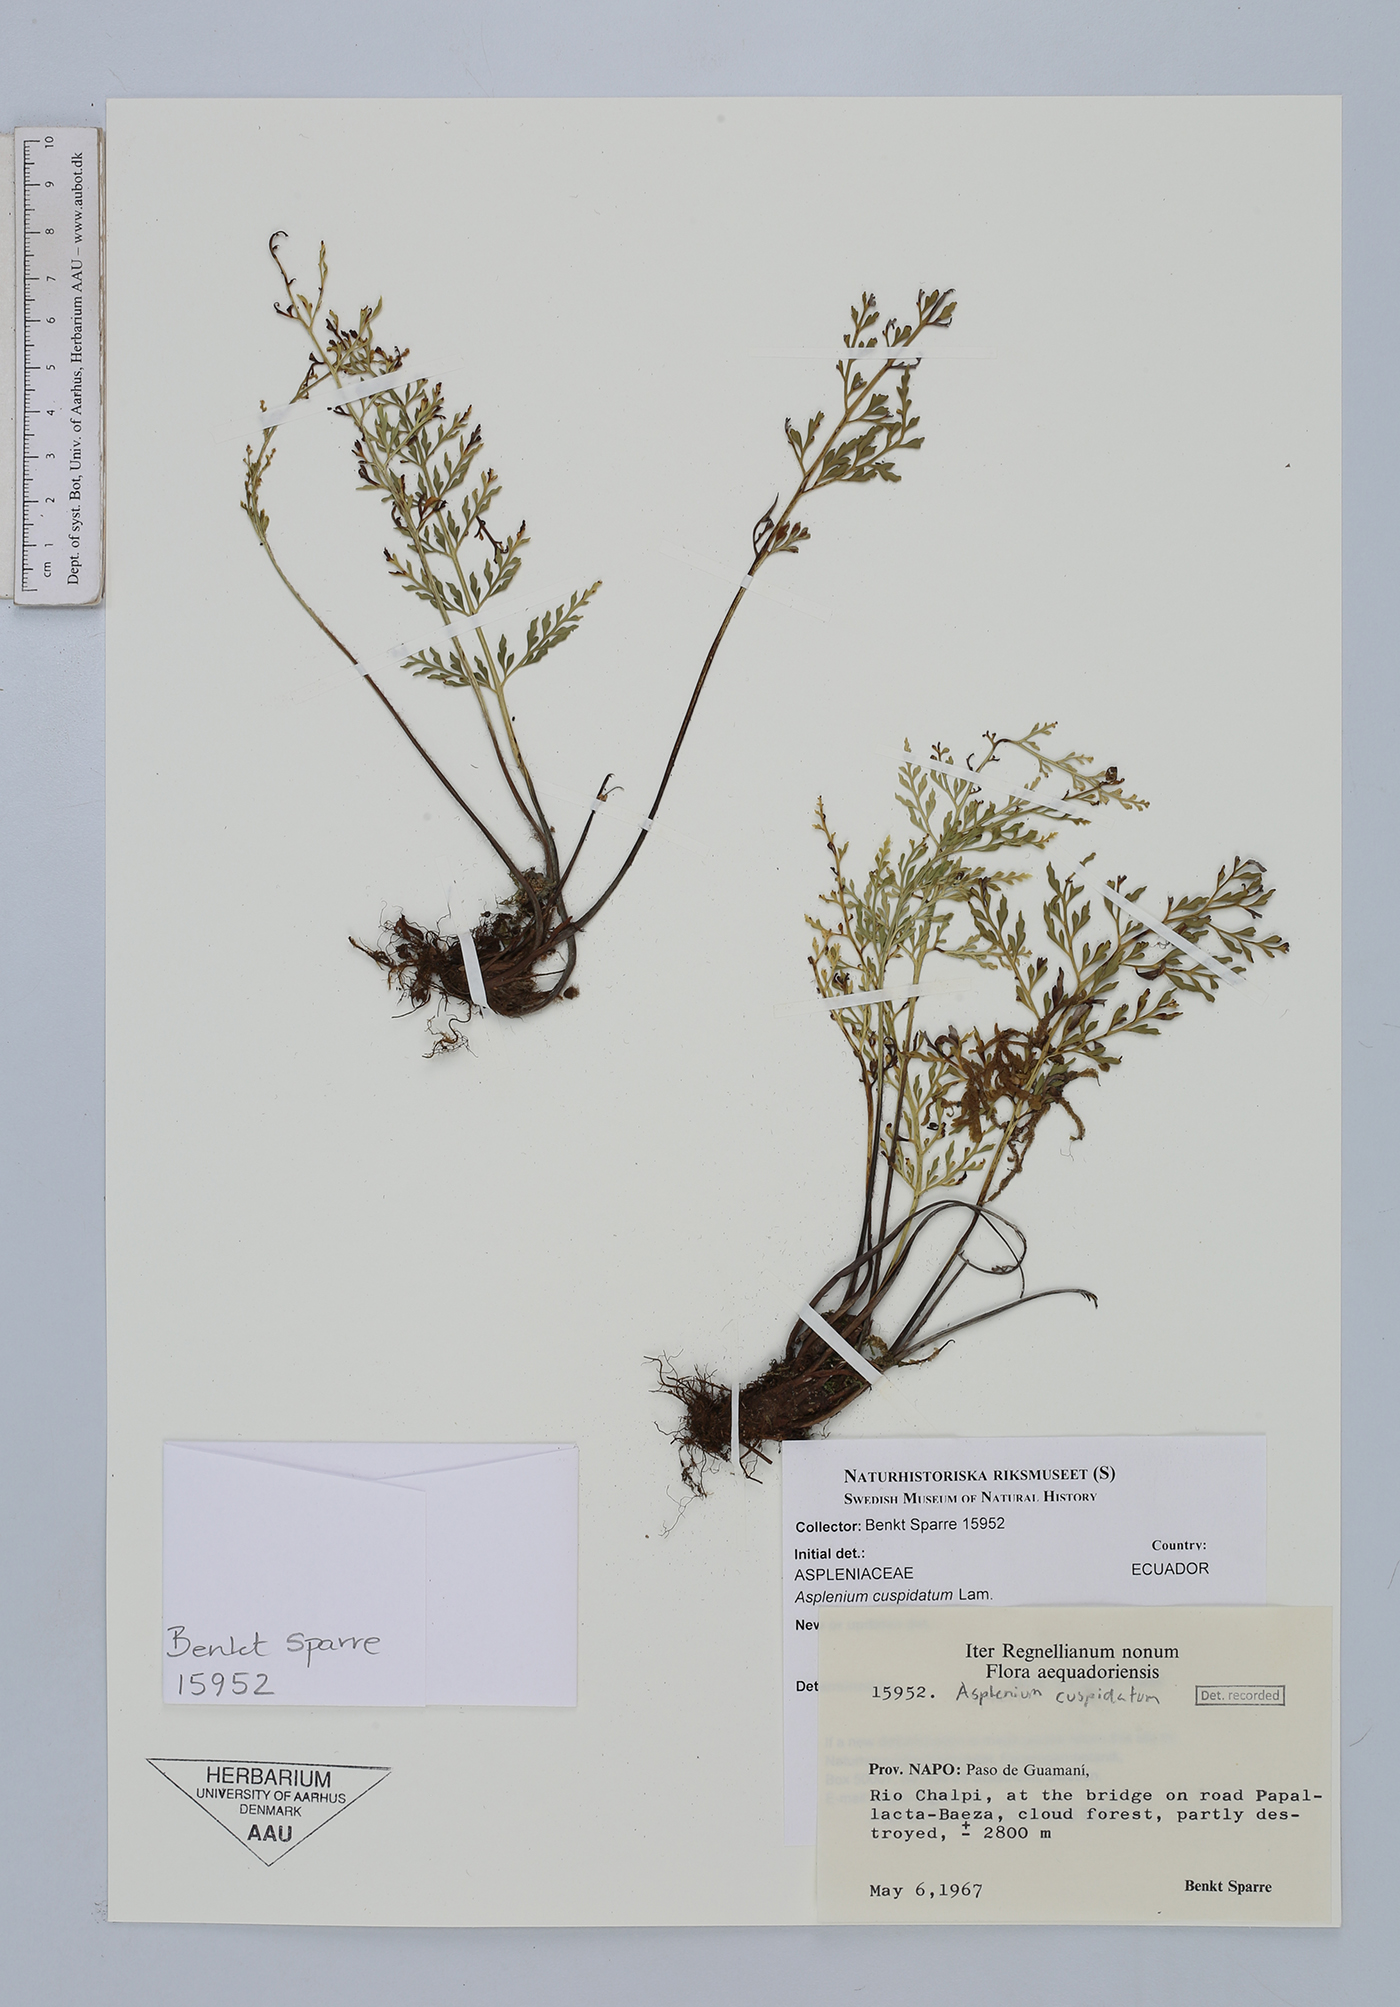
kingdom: Plantae
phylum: Tracheophyta
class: Polypodiopsida
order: Polypodiales
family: Aspleniaceae
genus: Asplenium
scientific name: Asplenium cuspidatum
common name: Eared spleenwort
